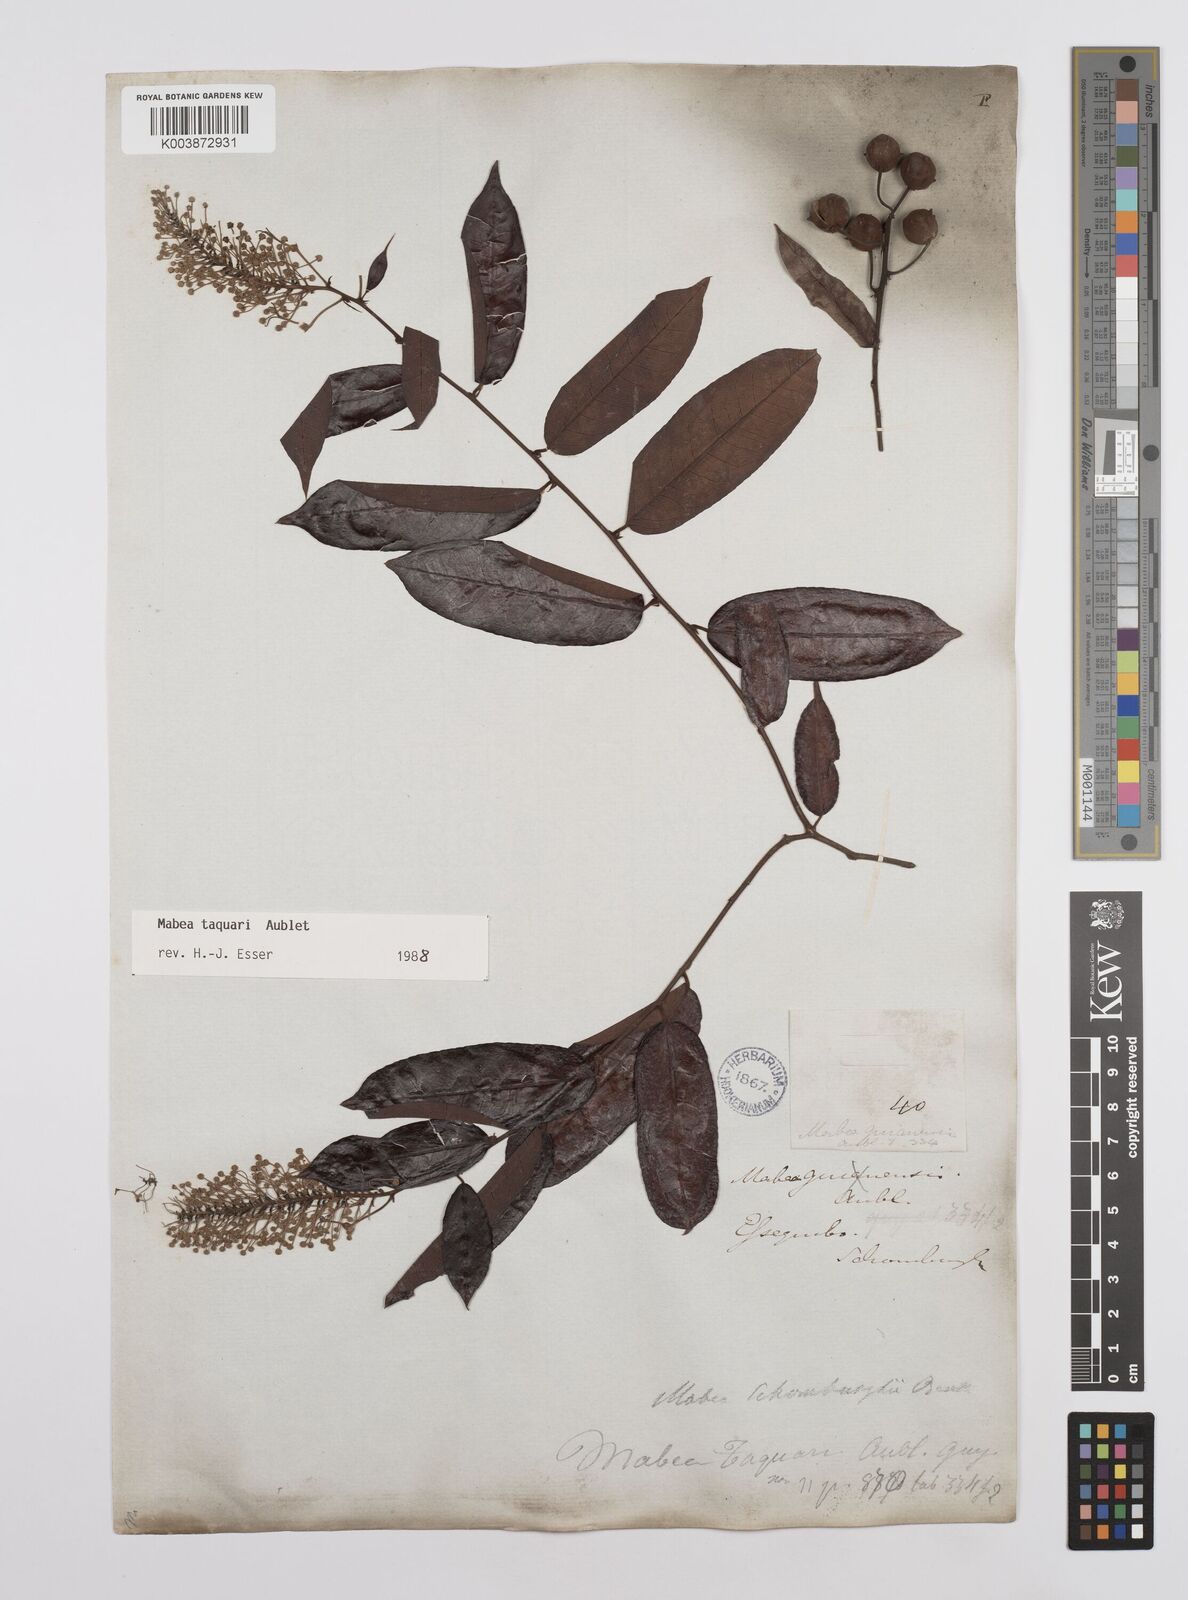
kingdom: Plantae
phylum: Tracheophyta
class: Magnoliopsida
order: Malpighiales
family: Euphorbiaceae
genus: Mabea
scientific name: Mabea taquari
